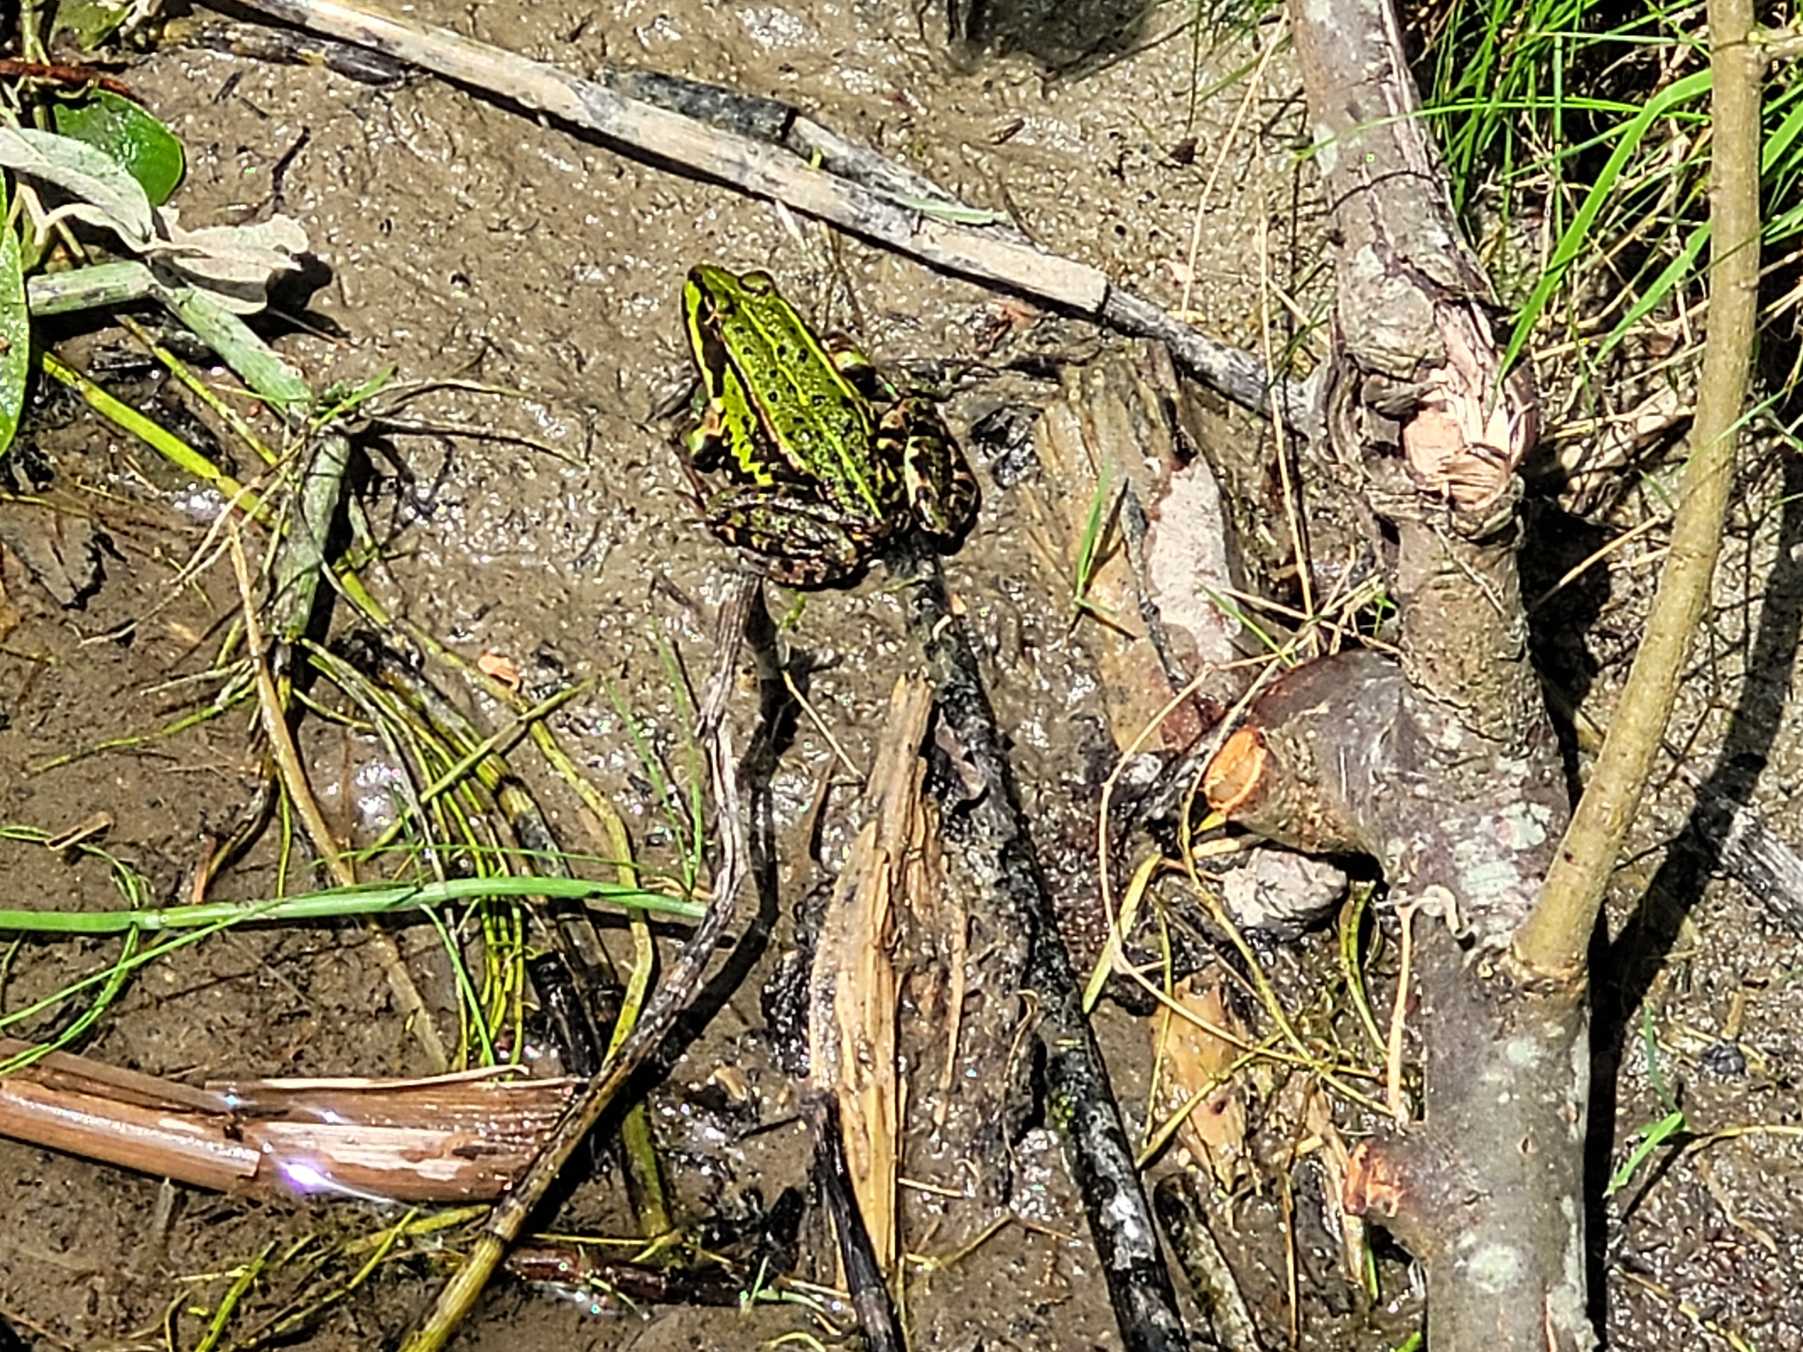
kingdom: Animalia
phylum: Chordata
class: Amphibia
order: Anura
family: Ranidae
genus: Pelophylax
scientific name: Pelophylax lessonae
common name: Grøn frø
